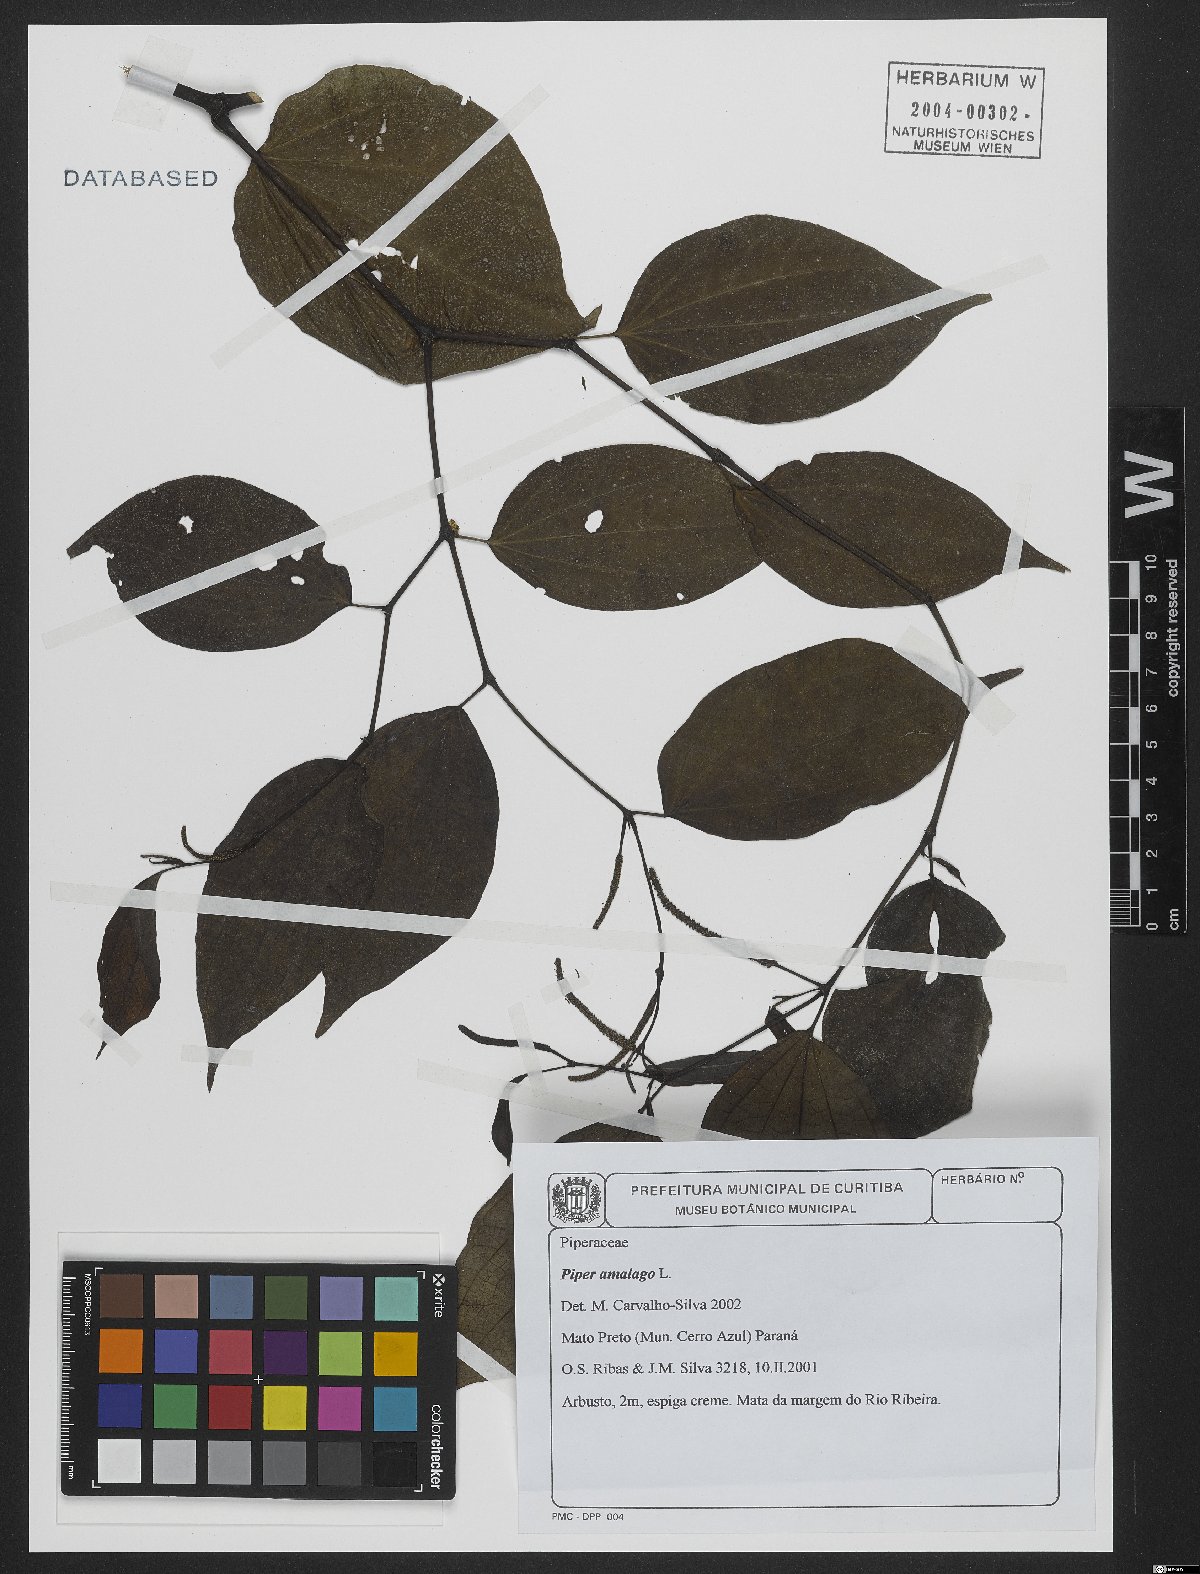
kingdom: Plantae
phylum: Tracheophyta
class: Magnoliopsida
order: Piperales
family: Piperaceae
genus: Piper
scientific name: Piper amalago
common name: Pepper-elder
